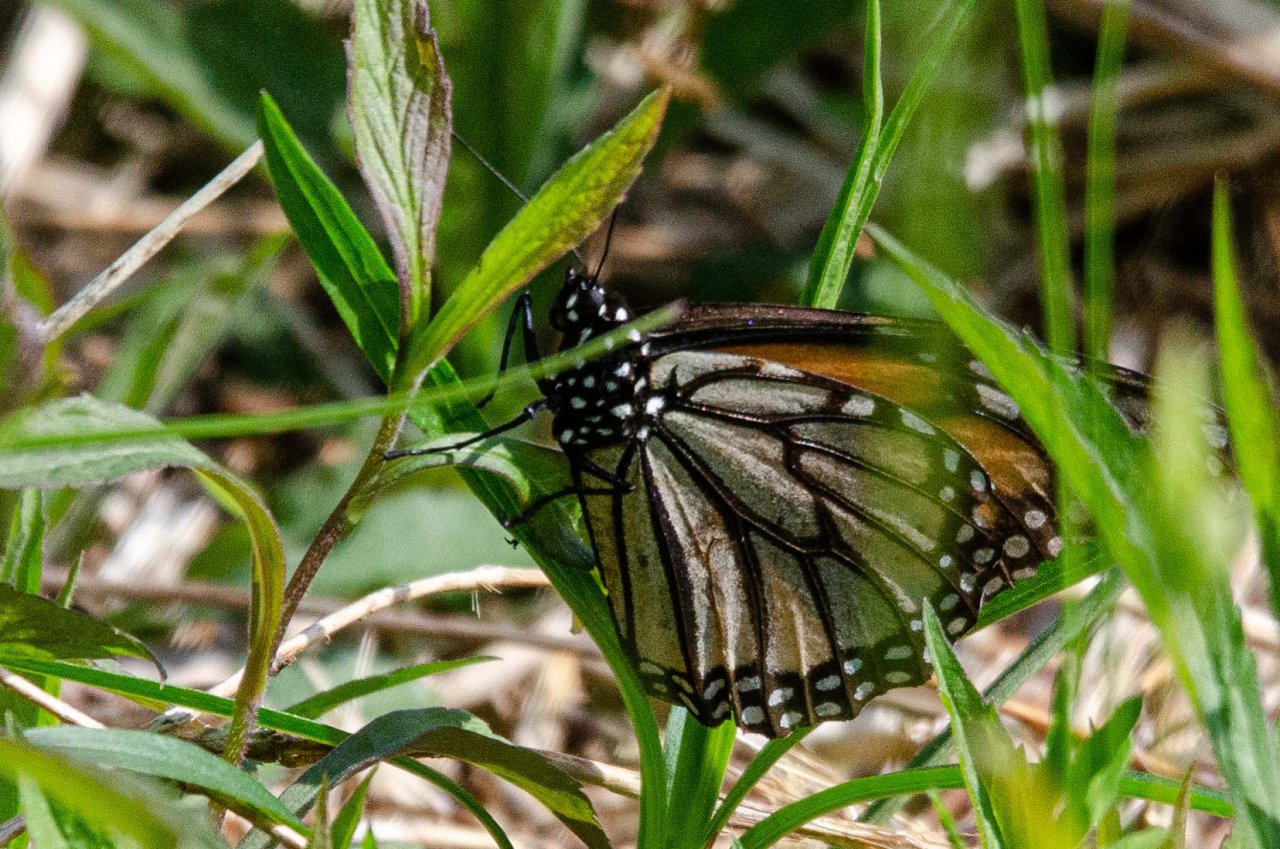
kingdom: Animalia
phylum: Arthropoda
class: Insecta
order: Lepidoptera
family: Nymphalidae
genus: Danaus
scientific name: Danaus plexippus
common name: Monarch
